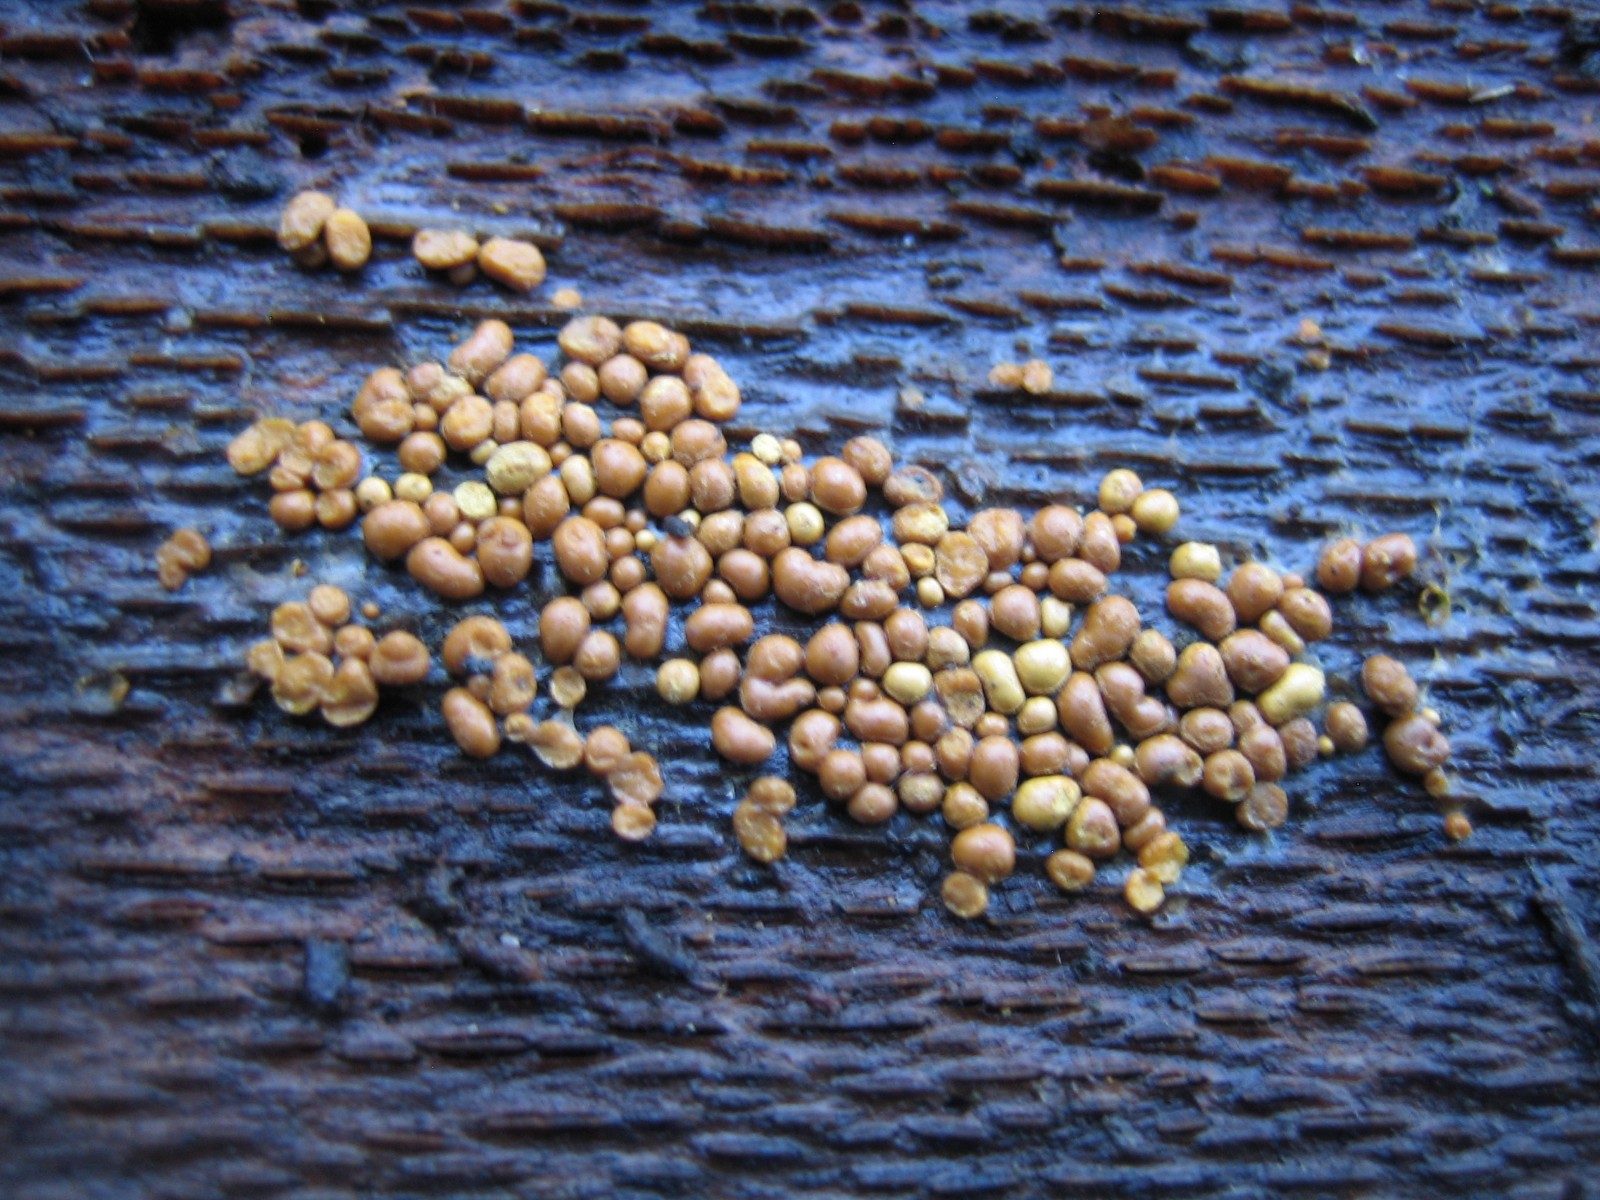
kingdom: Protozoa
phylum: Mycetozoa
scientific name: Mycetozoa
